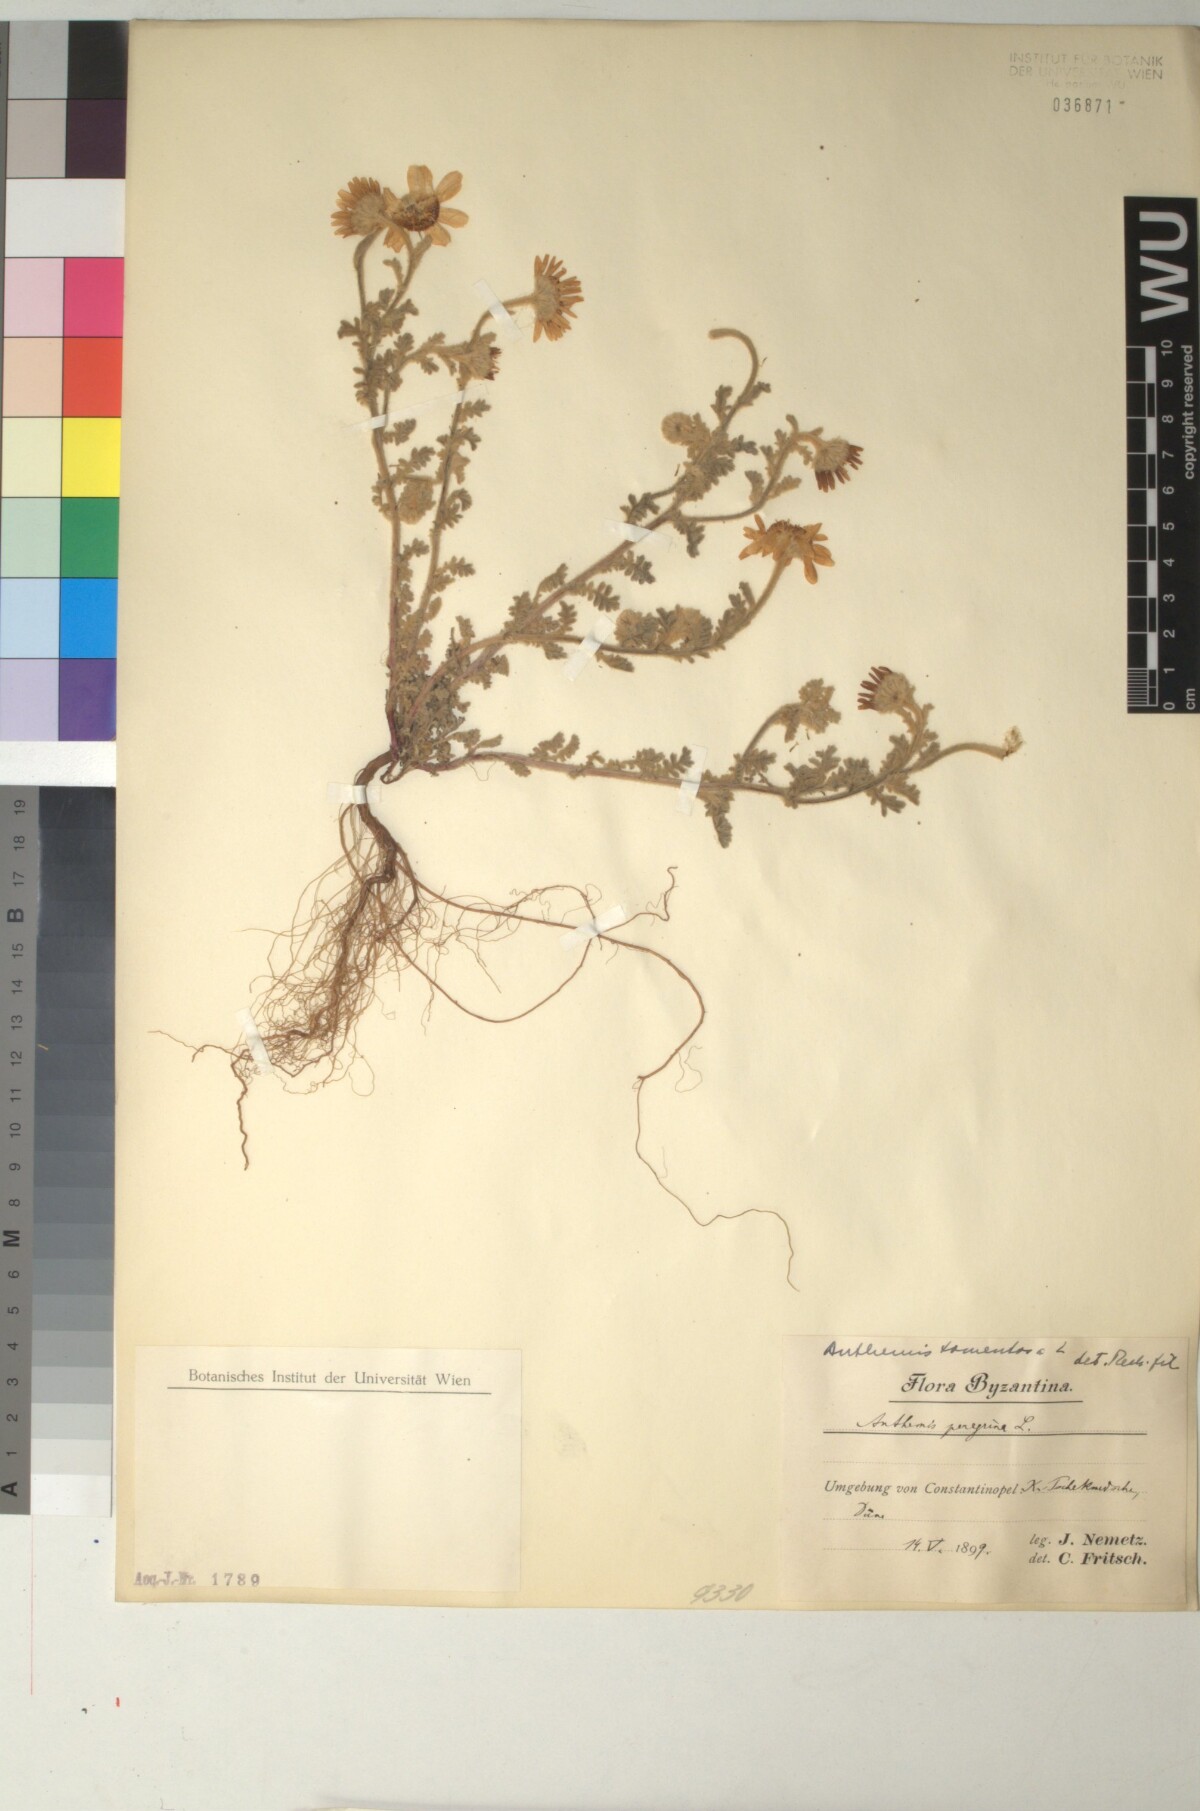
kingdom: Plantae
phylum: Tracheophyta
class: Magnoliopsida
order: Asterales
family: Asteraceae
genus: Anthemis
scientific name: Anthemis tomentosa
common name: Woolly chamomile
